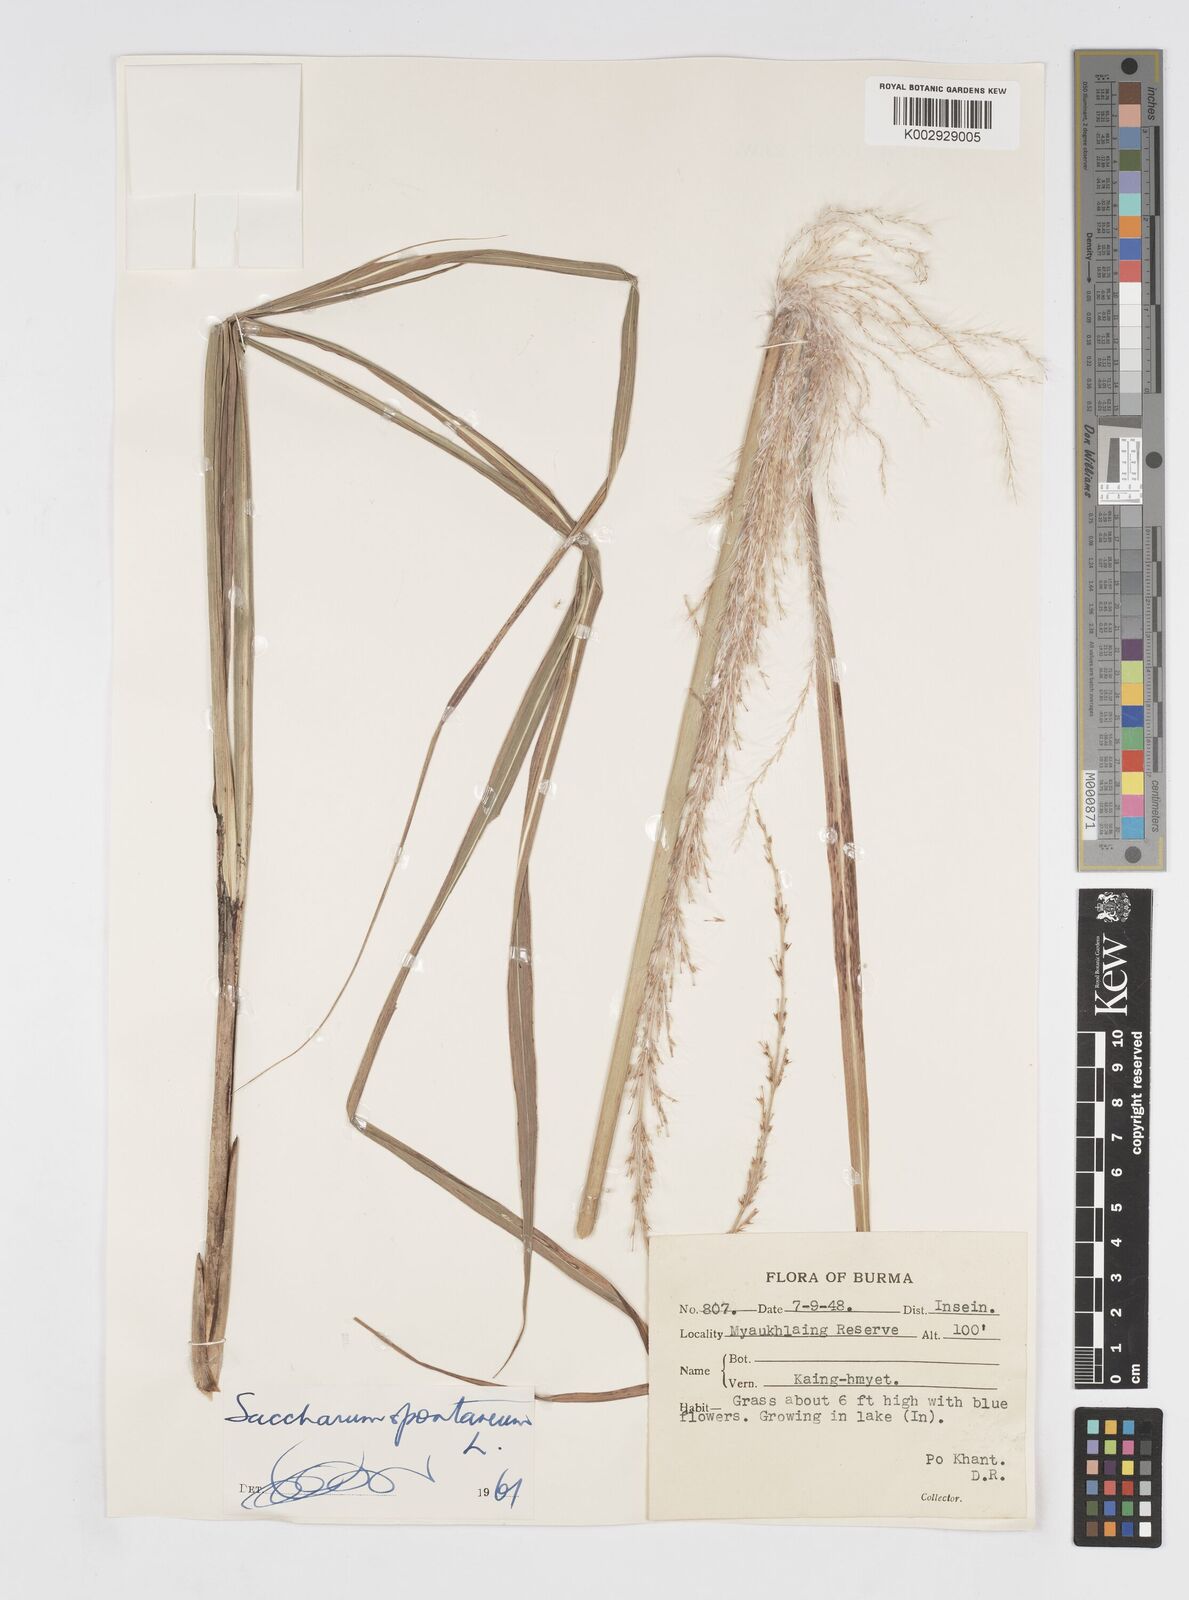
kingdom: Plantae
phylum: Tracheophyta
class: Liliopsida
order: Poales
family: Poaceae
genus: Saccharum
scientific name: Saccharum spontaneum
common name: Wild sugarcane
